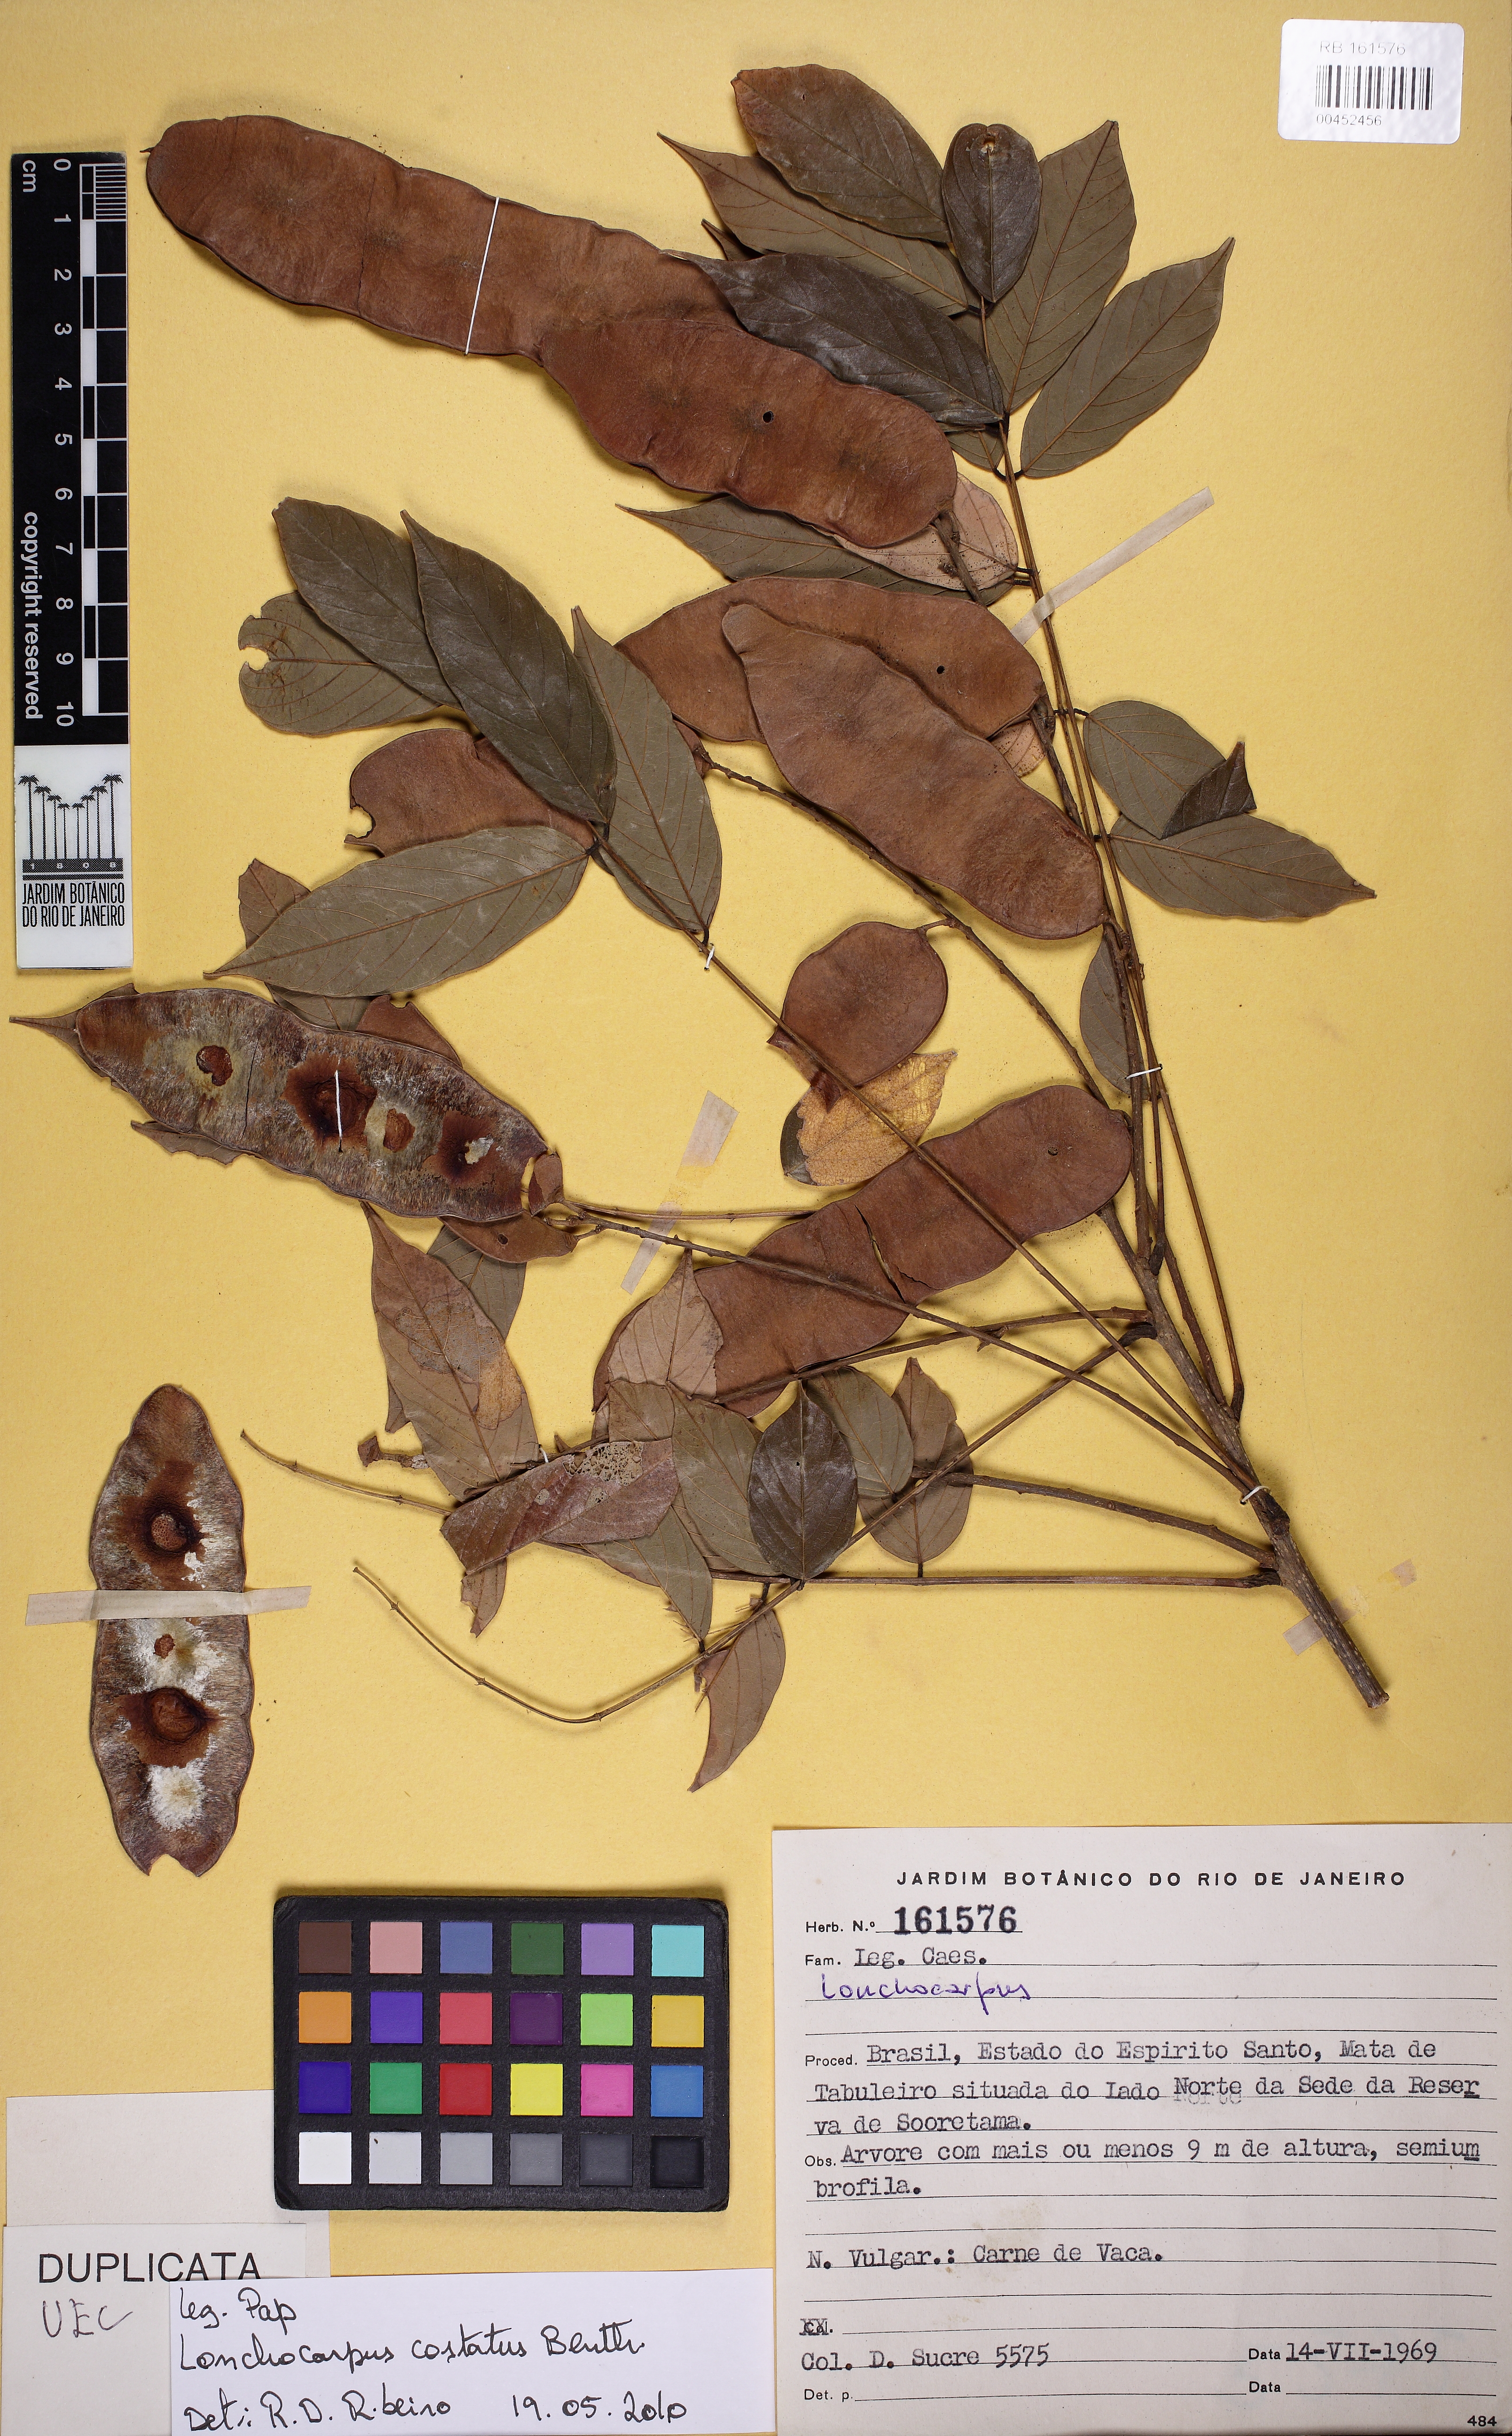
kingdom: Plantae
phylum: Tracheophyta
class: Magnoliopsida
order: Fabales
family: Fabaceae
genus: Deguelia
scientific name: Deguelia costata
